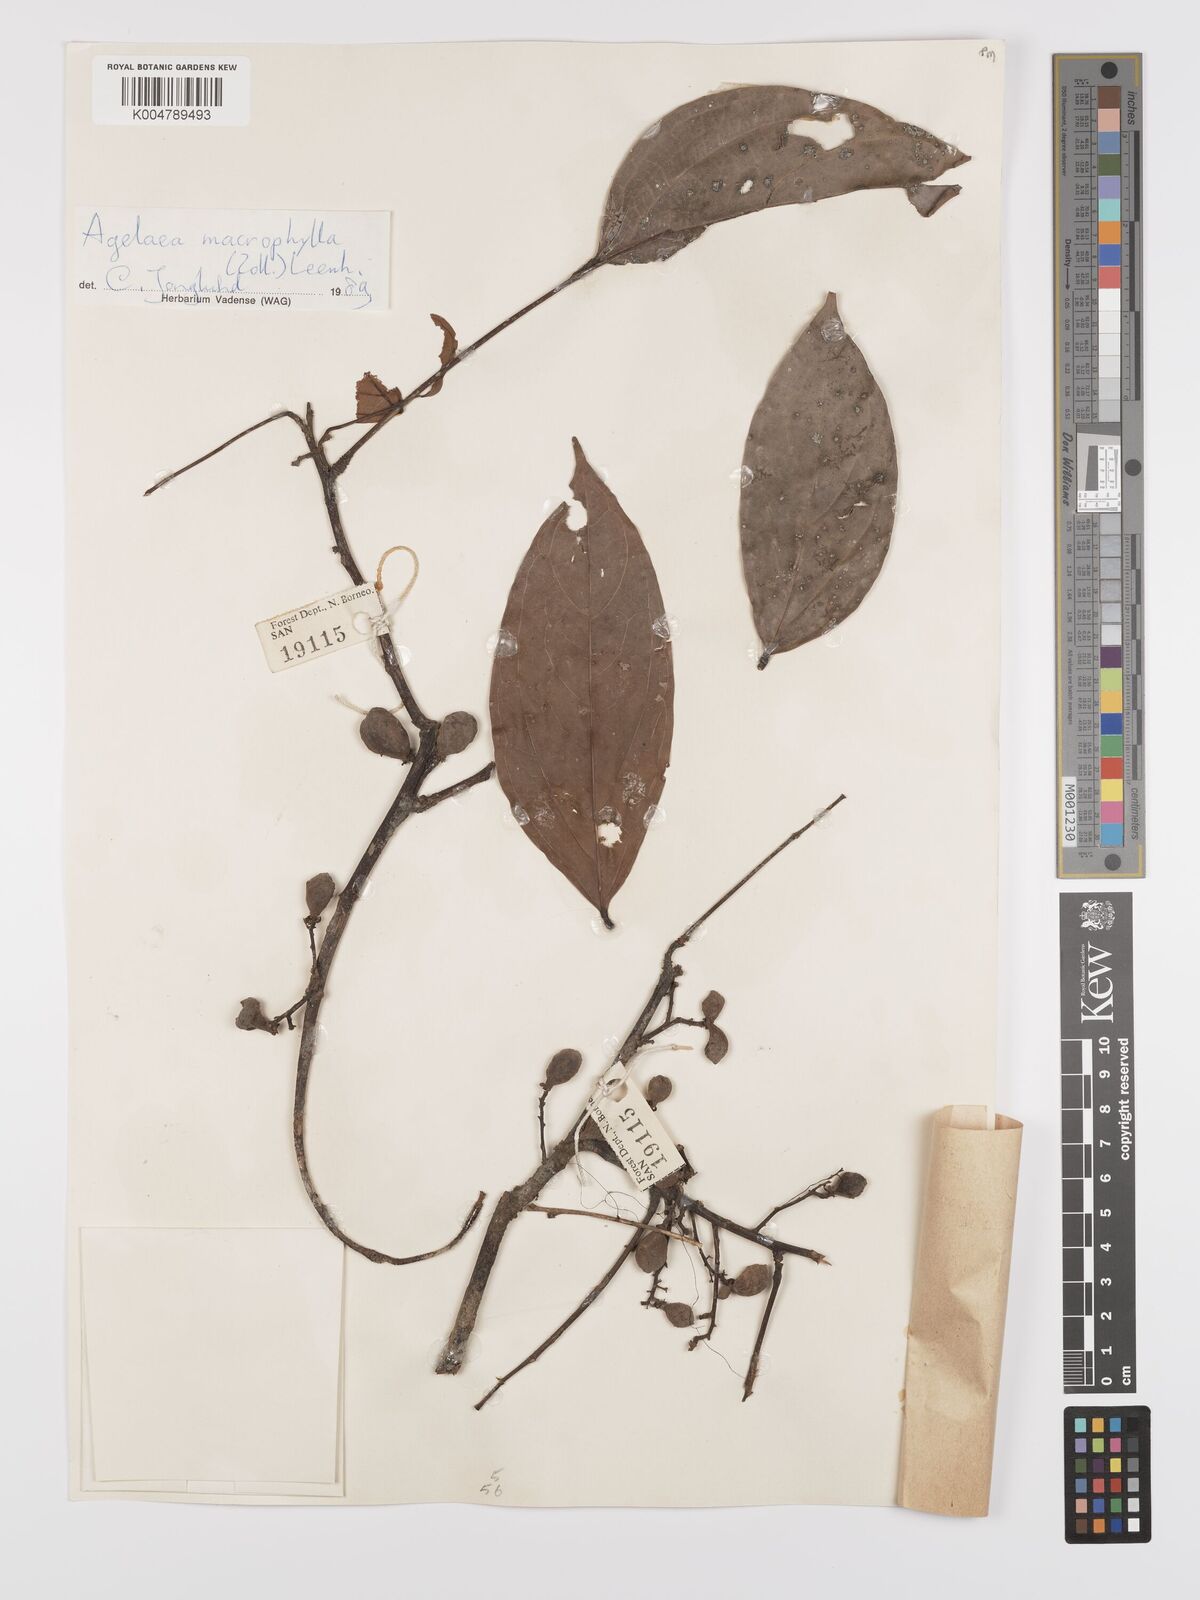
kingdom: Plantae
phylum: Tracheophyta
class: Magnoliopsida
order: Oxalidales
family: Connaraceae
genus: Agelaea
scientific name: Agelaea macrophylla
